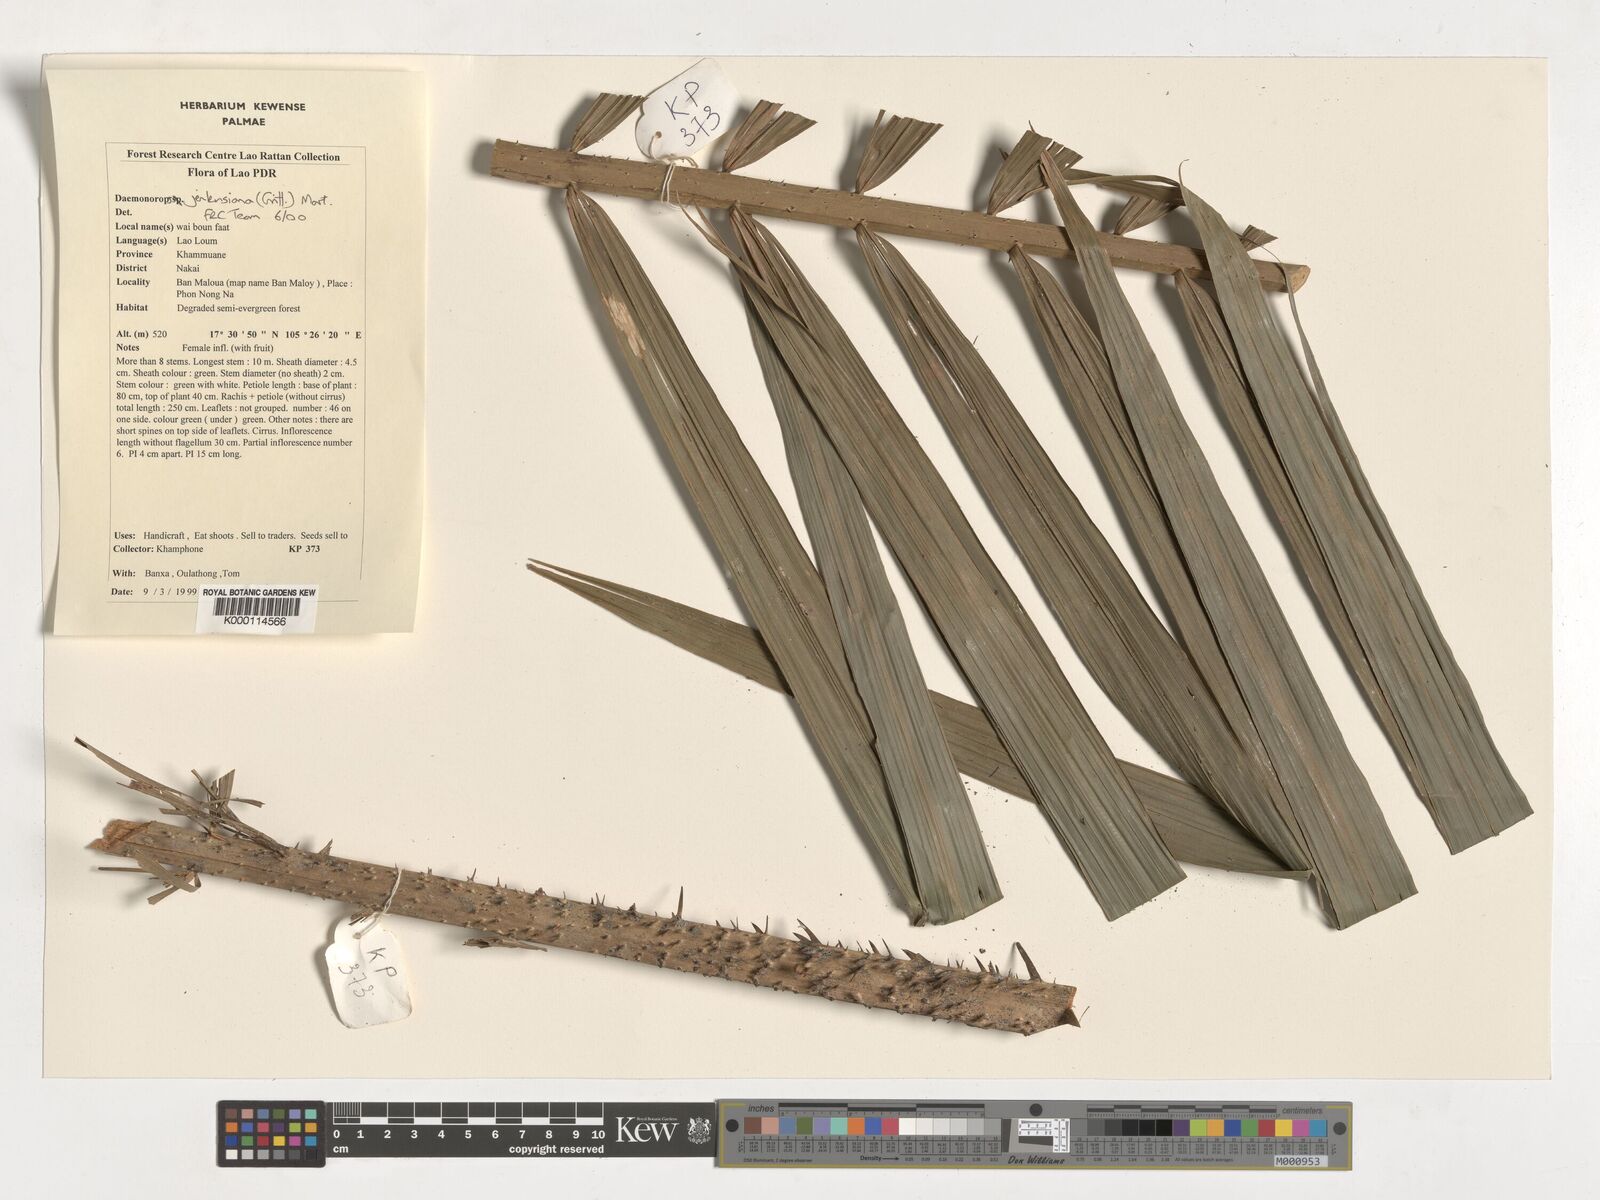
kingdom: Plantae
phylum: Tracheophyta
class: Liliopsida
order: Arecales
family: Arecaceae
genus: Calamus
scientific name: Calamus melanochaetes
